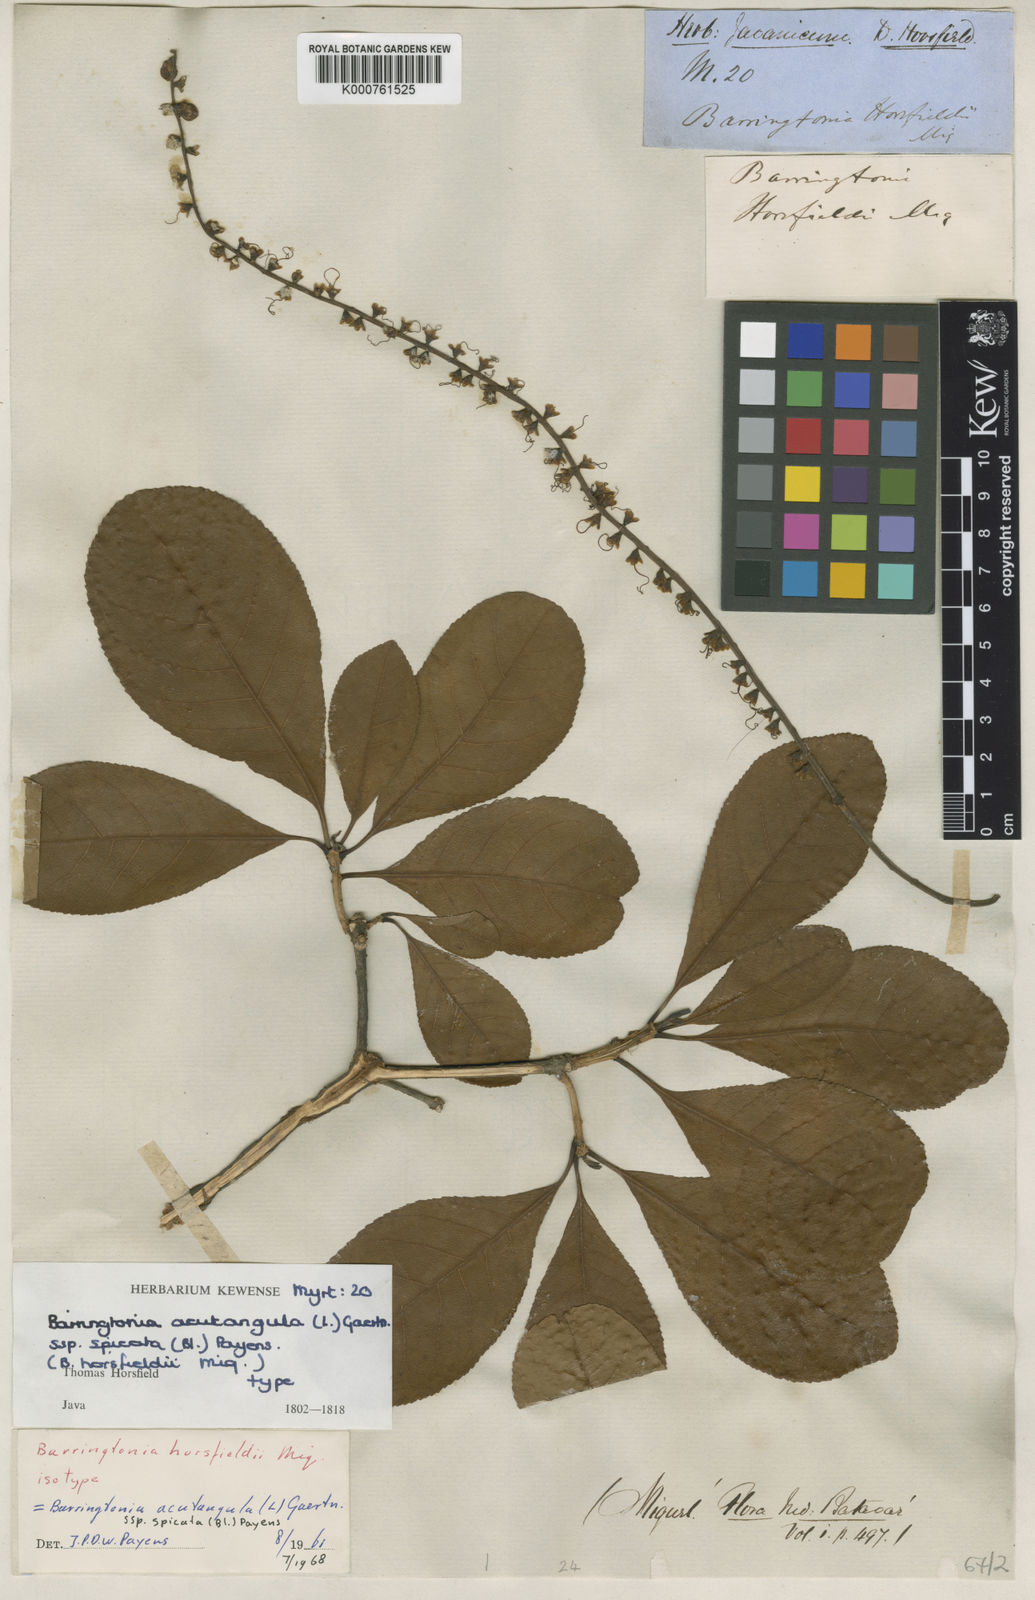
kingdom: Plantae
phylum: Tracheophyta
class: Magnoliopsida
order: Ericales
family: Lecythidaceae
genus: Barringtonia
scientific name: Barringtonia acutangula
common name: Freshwater mangrove
